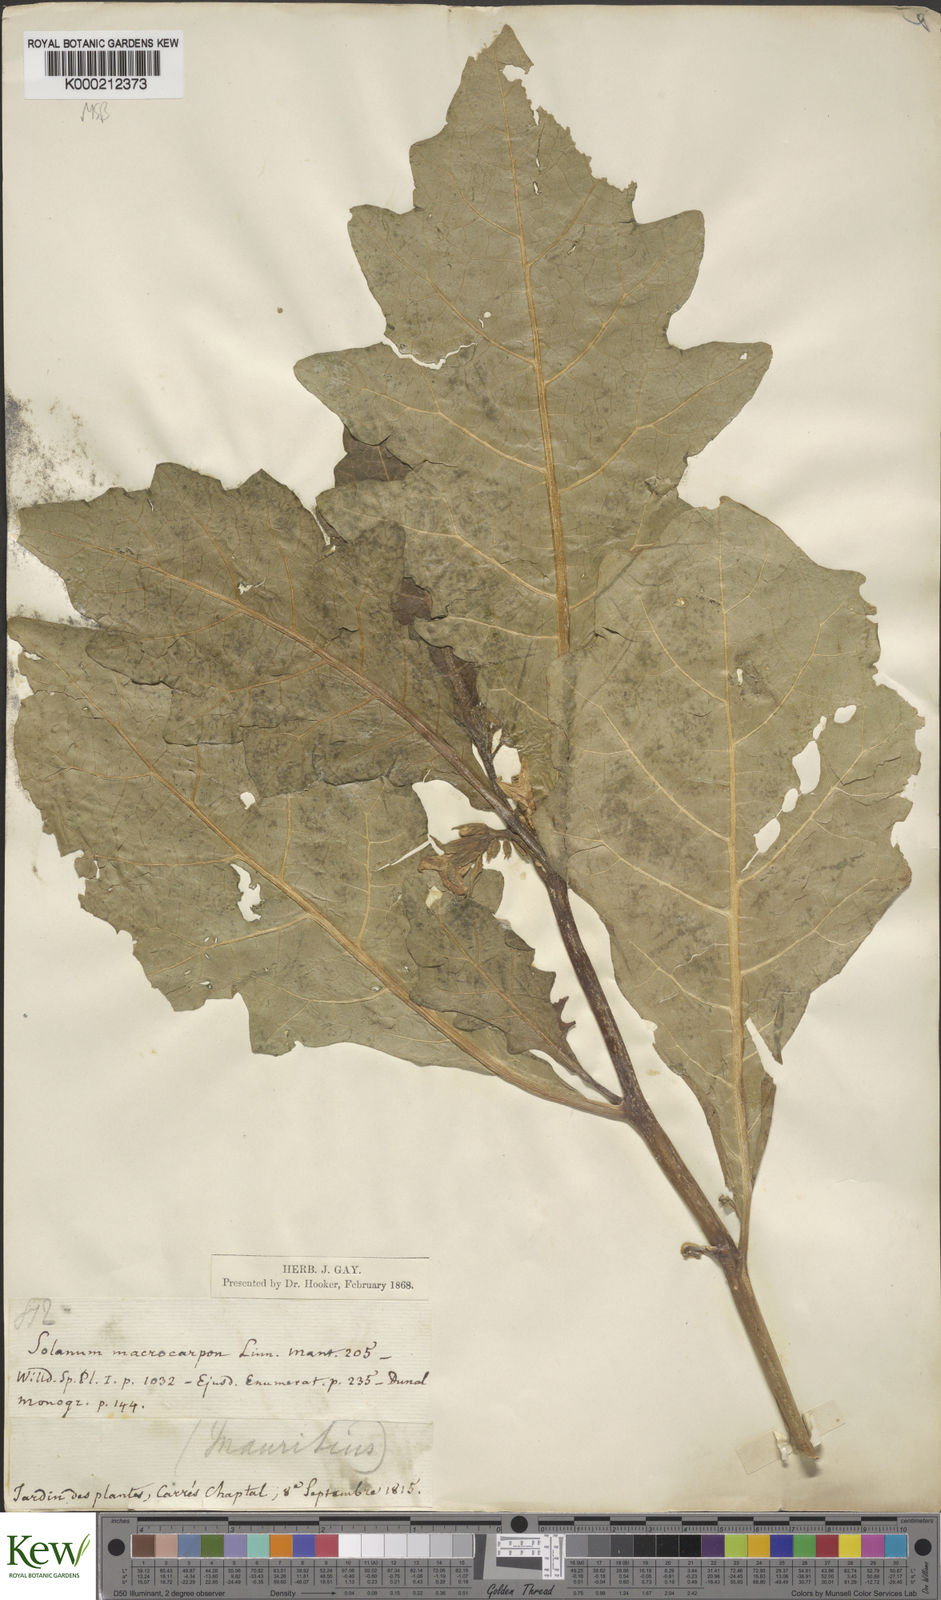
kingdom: Plantae
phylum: Tracheophyta
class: Magnoliopsida
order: Solanales
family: Solanaceae
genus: Solanum
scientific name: Solanum macrocarpon
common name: African eggplant
